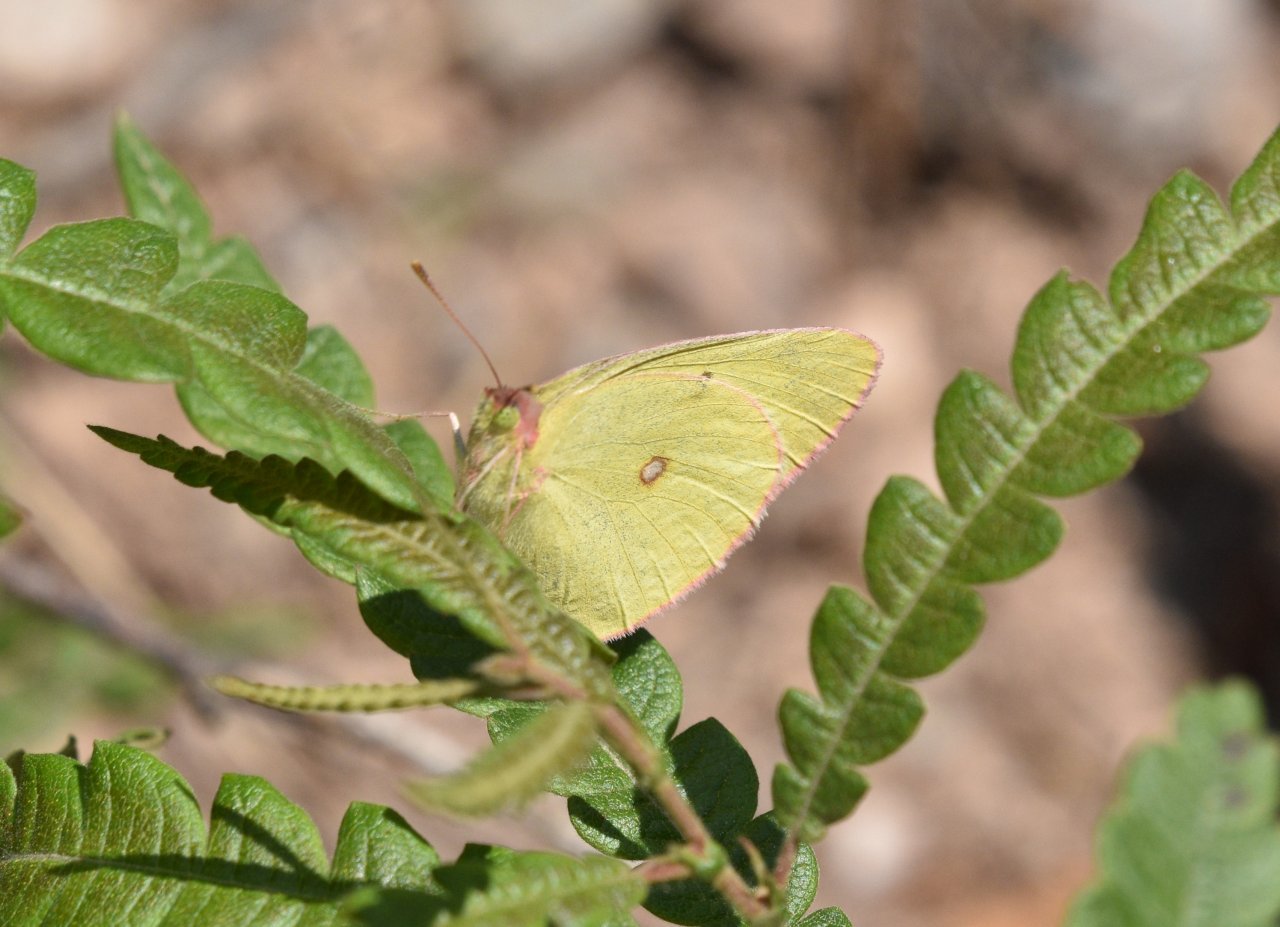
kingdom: Animalia
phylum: Arthropoda
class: Insecta
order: Lepidoptera
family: Pieridae
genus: Colias
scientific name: Colias interior
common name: Pink-edged Sulphur
